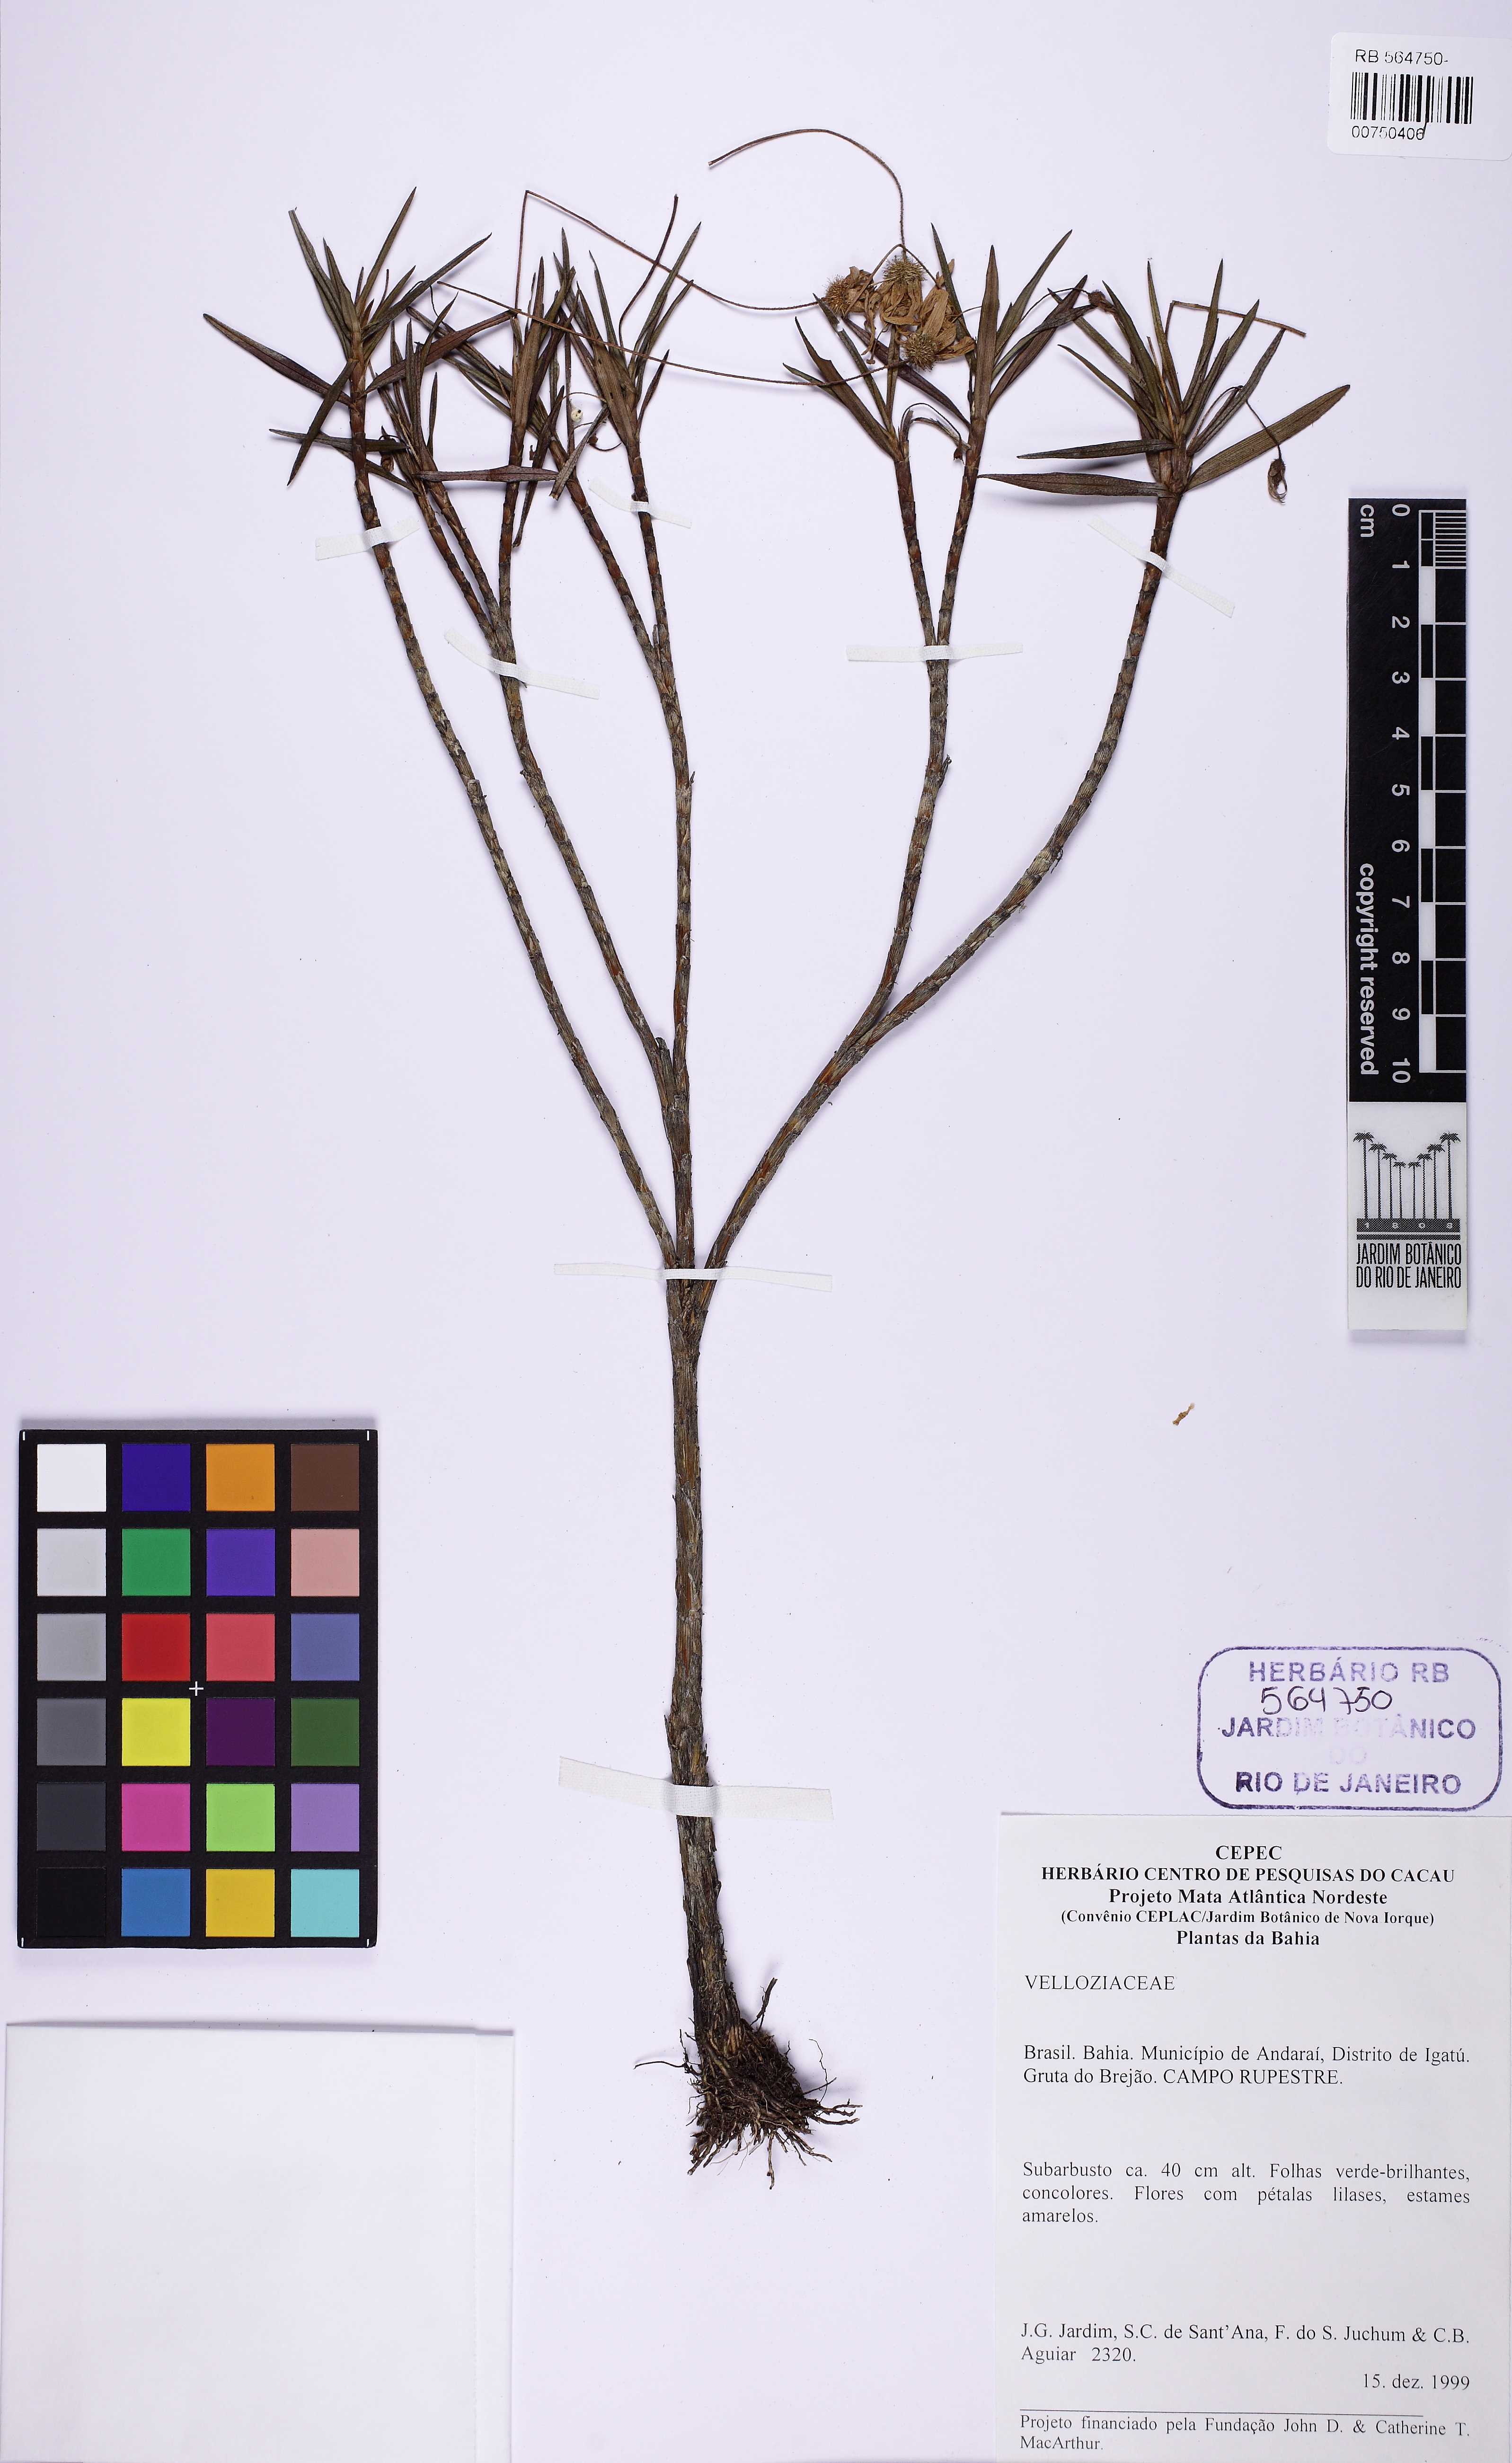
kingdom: Plantae
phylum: Tracheophyta
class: Liliopsida
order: Pandanales
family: Velloziaceae
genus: Vellozia
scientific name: Vellozia jolyi
